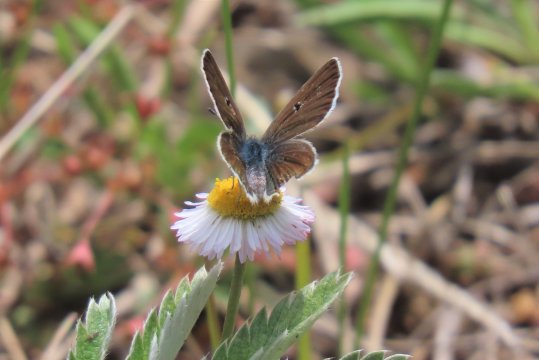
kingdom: Animalia
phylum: Arthropoda
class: Insecta
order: Lepidoptera
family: Lycaenidae
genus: Agriades
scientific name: Agriades glandon
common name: Arctic Blue
